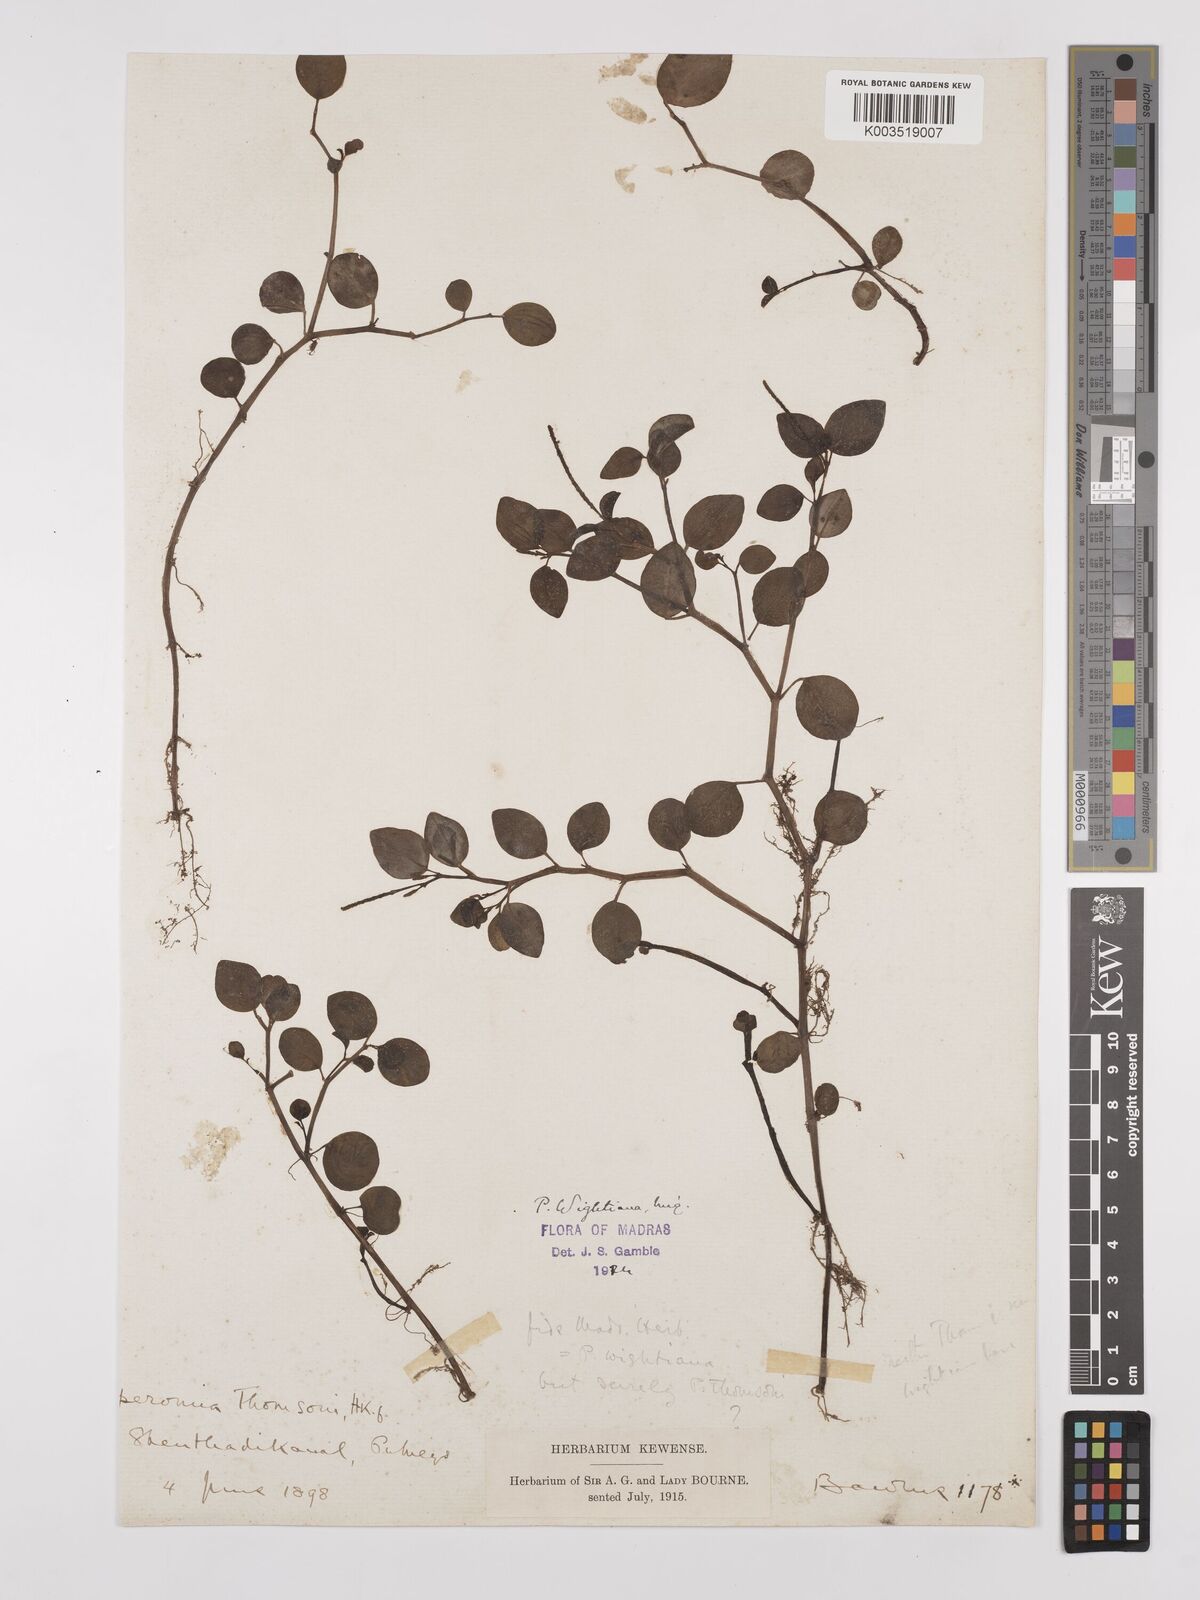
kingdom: Plantae
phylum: Tracheophyta
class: Magnoliopsida
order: Piperales
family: Piperaceae
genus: Peperomia
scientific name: Peperomia wightiana
